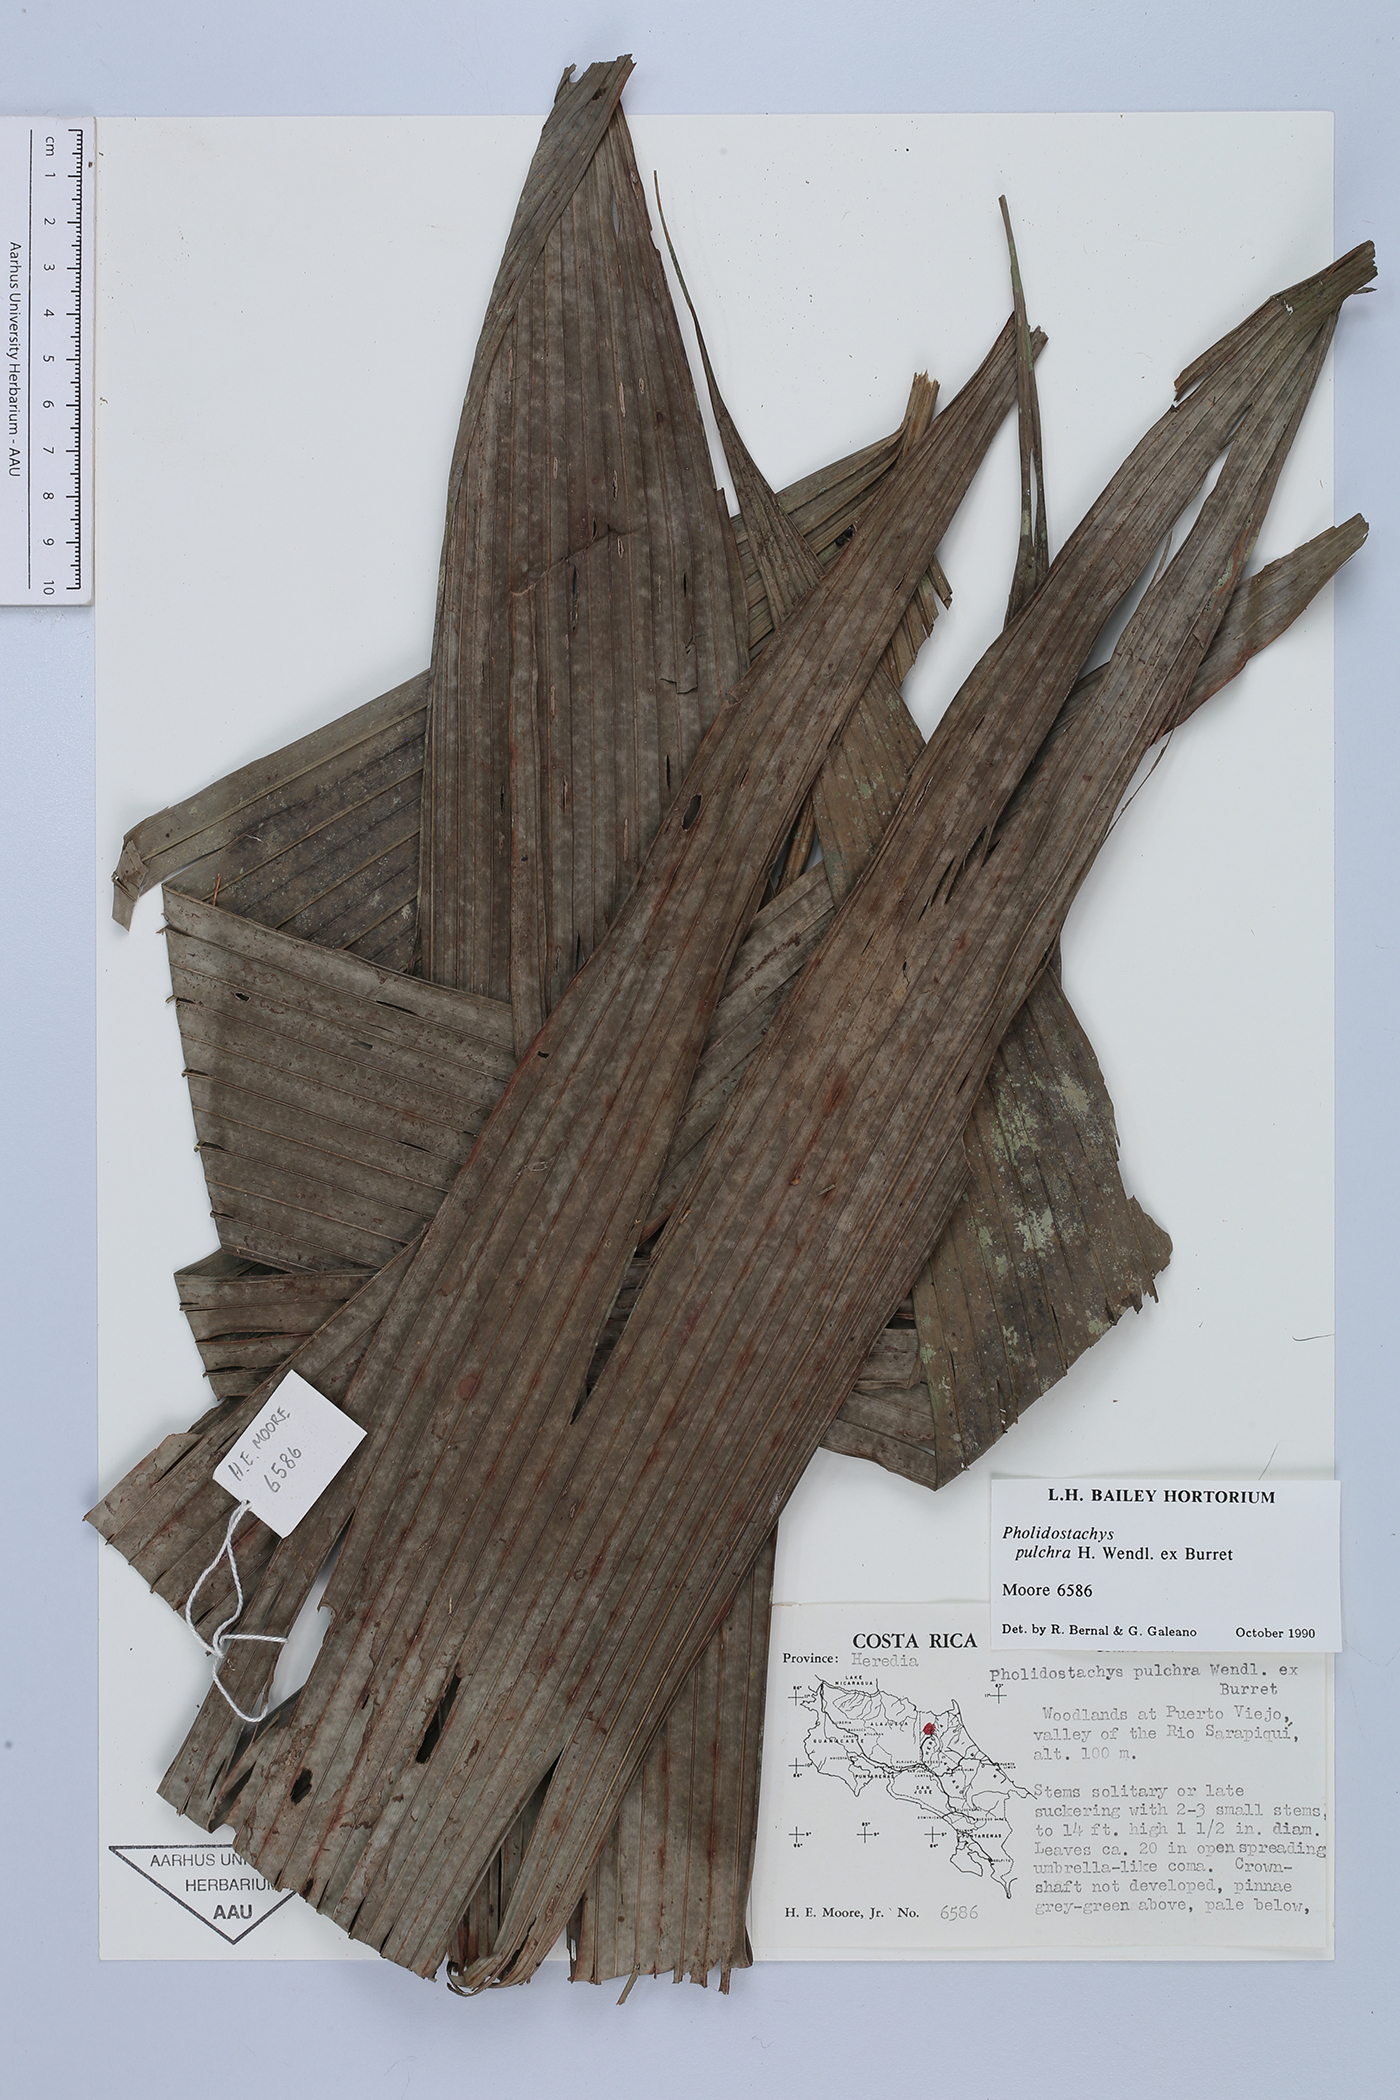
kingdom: Plantae
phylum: Tracheophyta
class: Liliopsida
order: Arecales
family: Arecaceae
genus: Pholidostachys
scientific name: Pholidostachys pulchra
